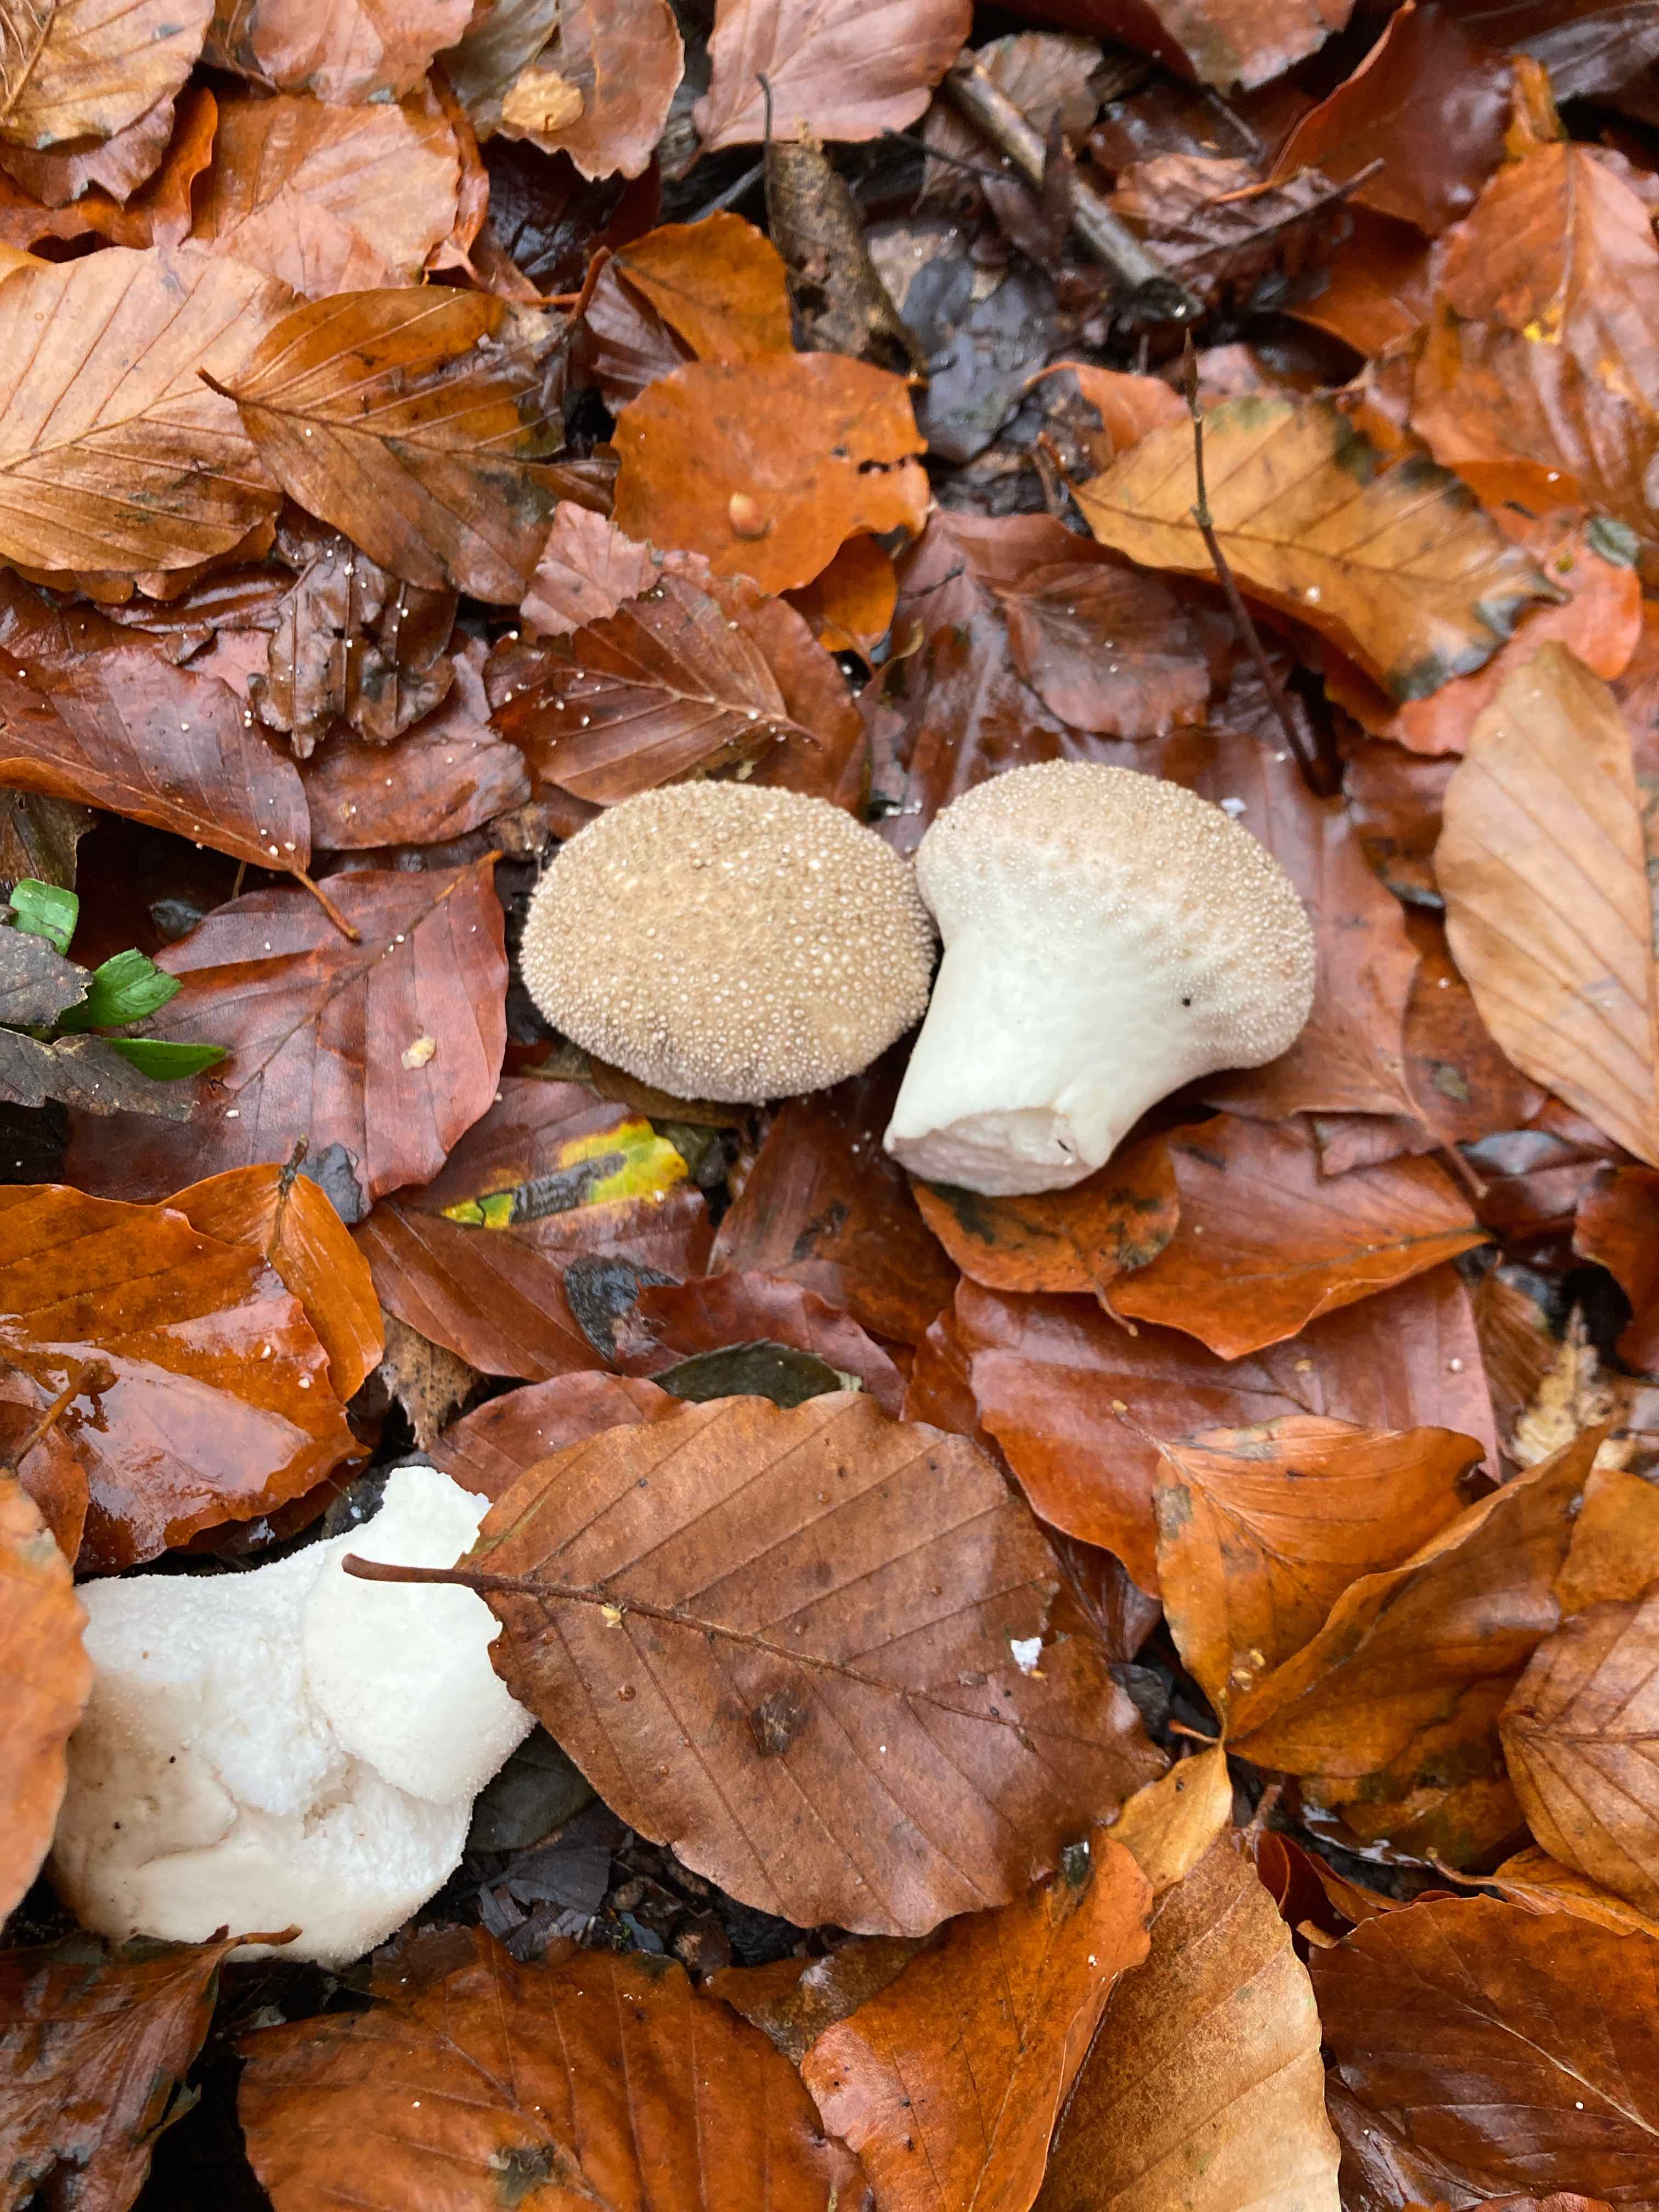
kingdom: Fungi
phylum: Basidiomycota
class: Agaricomycetes
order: Agaricales
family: Lycoperdaceae
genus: Lycoperdon
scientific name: Lycoperdon perlatum
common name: krystal-støvbold
